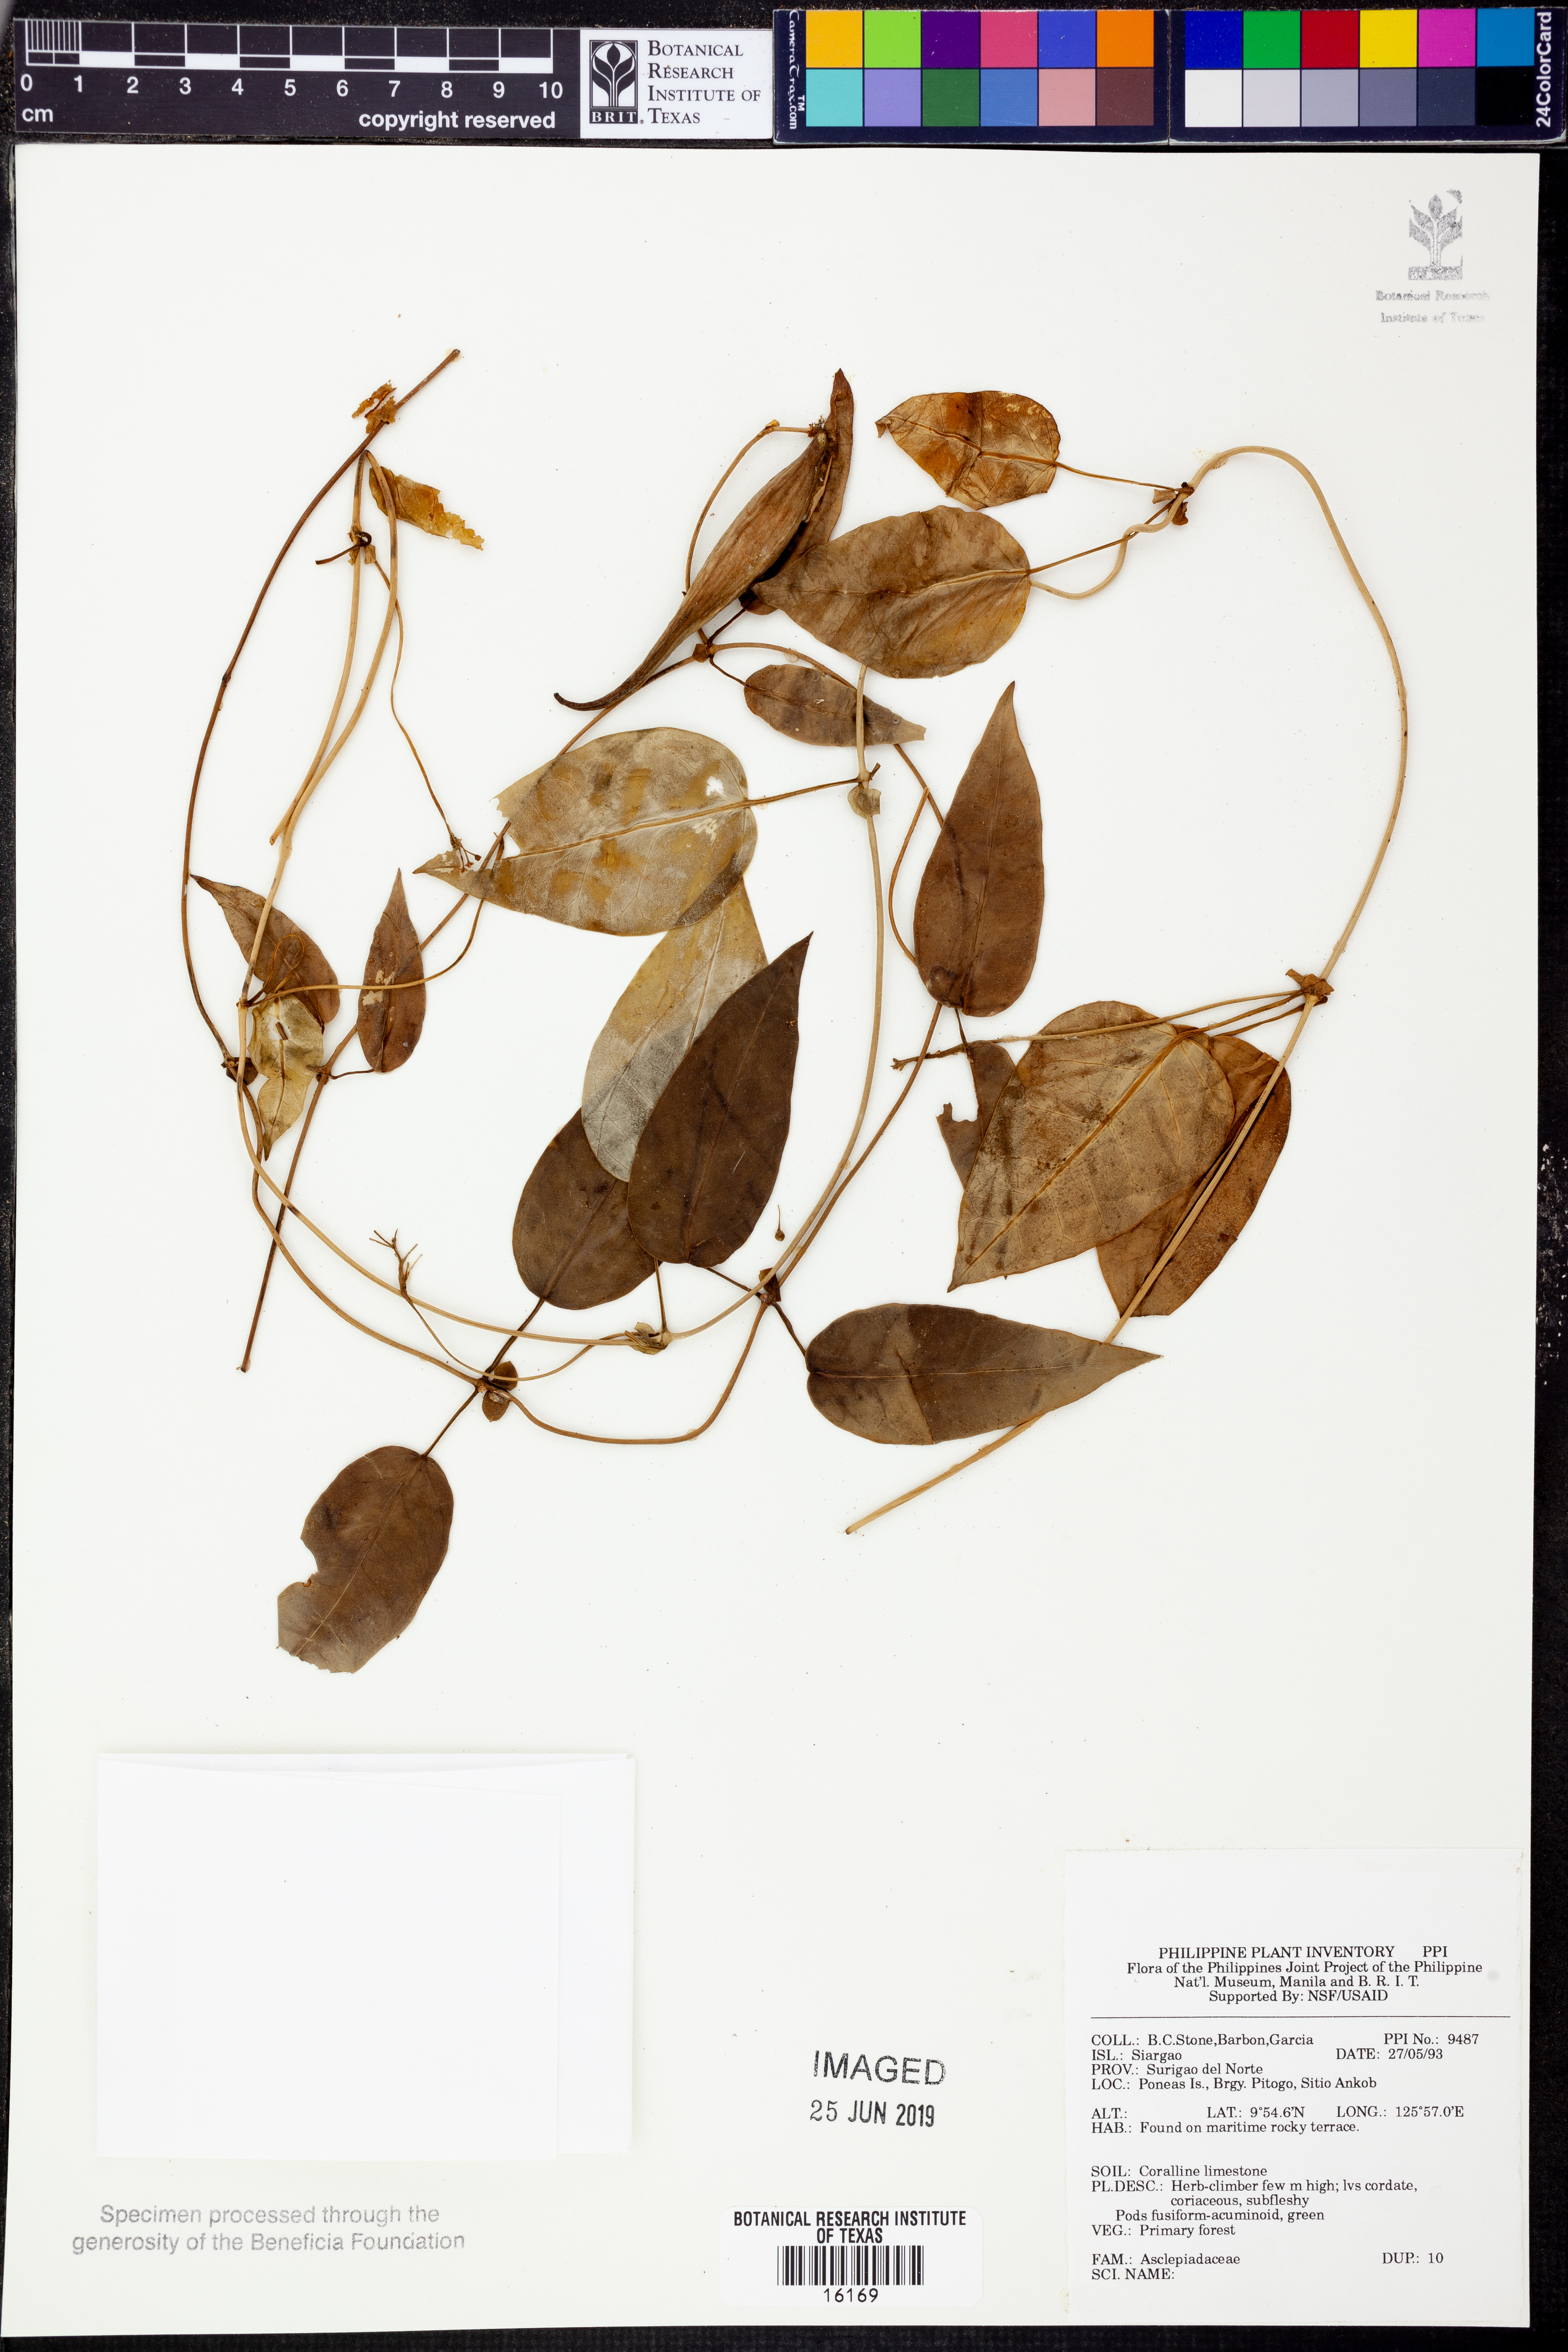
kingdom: Plantae
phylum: Tracheophyta
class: Magnoliopsida
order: Gentianales
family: Apocynaceae
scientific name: Apocynaceae
